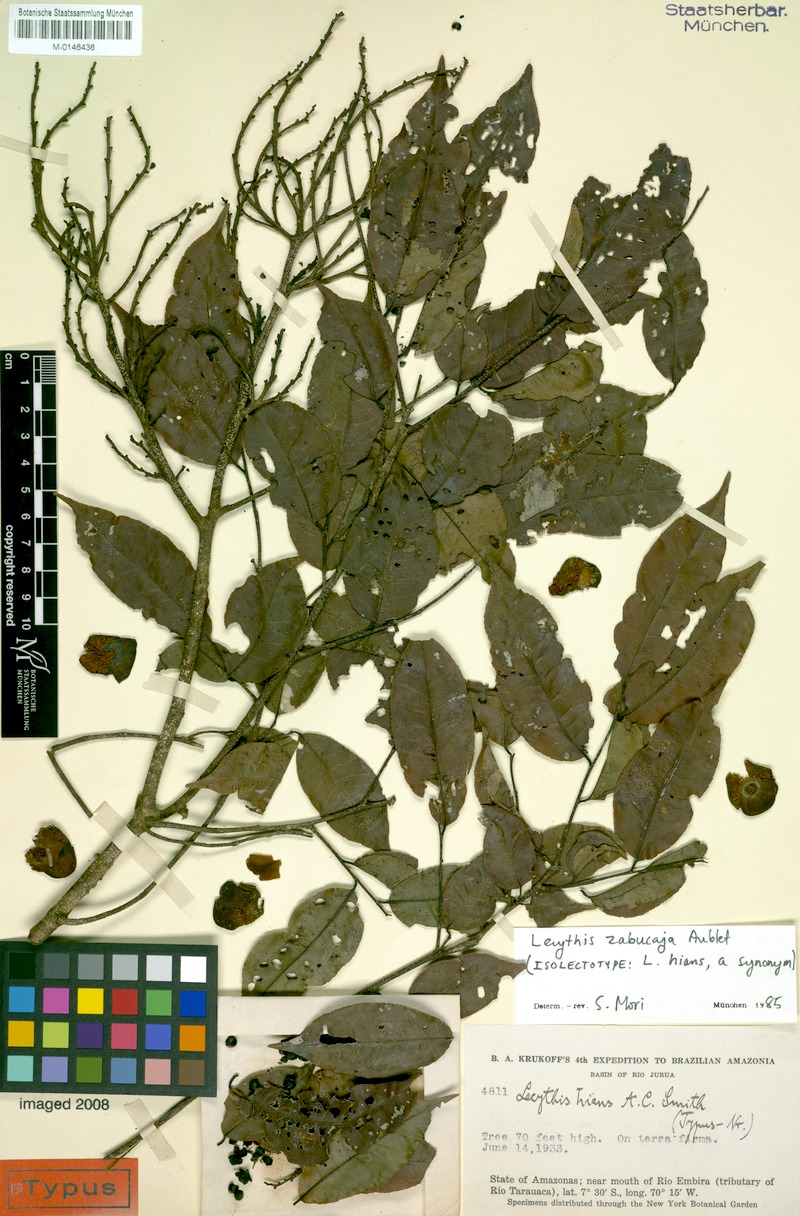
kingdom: Plantae
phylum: Tracheophyta
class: Magnoliopsida
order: Ericales
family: Lecythidaceae
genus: Lecythis
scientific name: Lecythis zabucajo
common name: Paradise-nut
